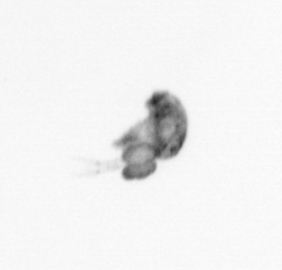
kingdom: Animalia
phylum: Arthropoda
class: Copepoda
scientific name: Copepoda
